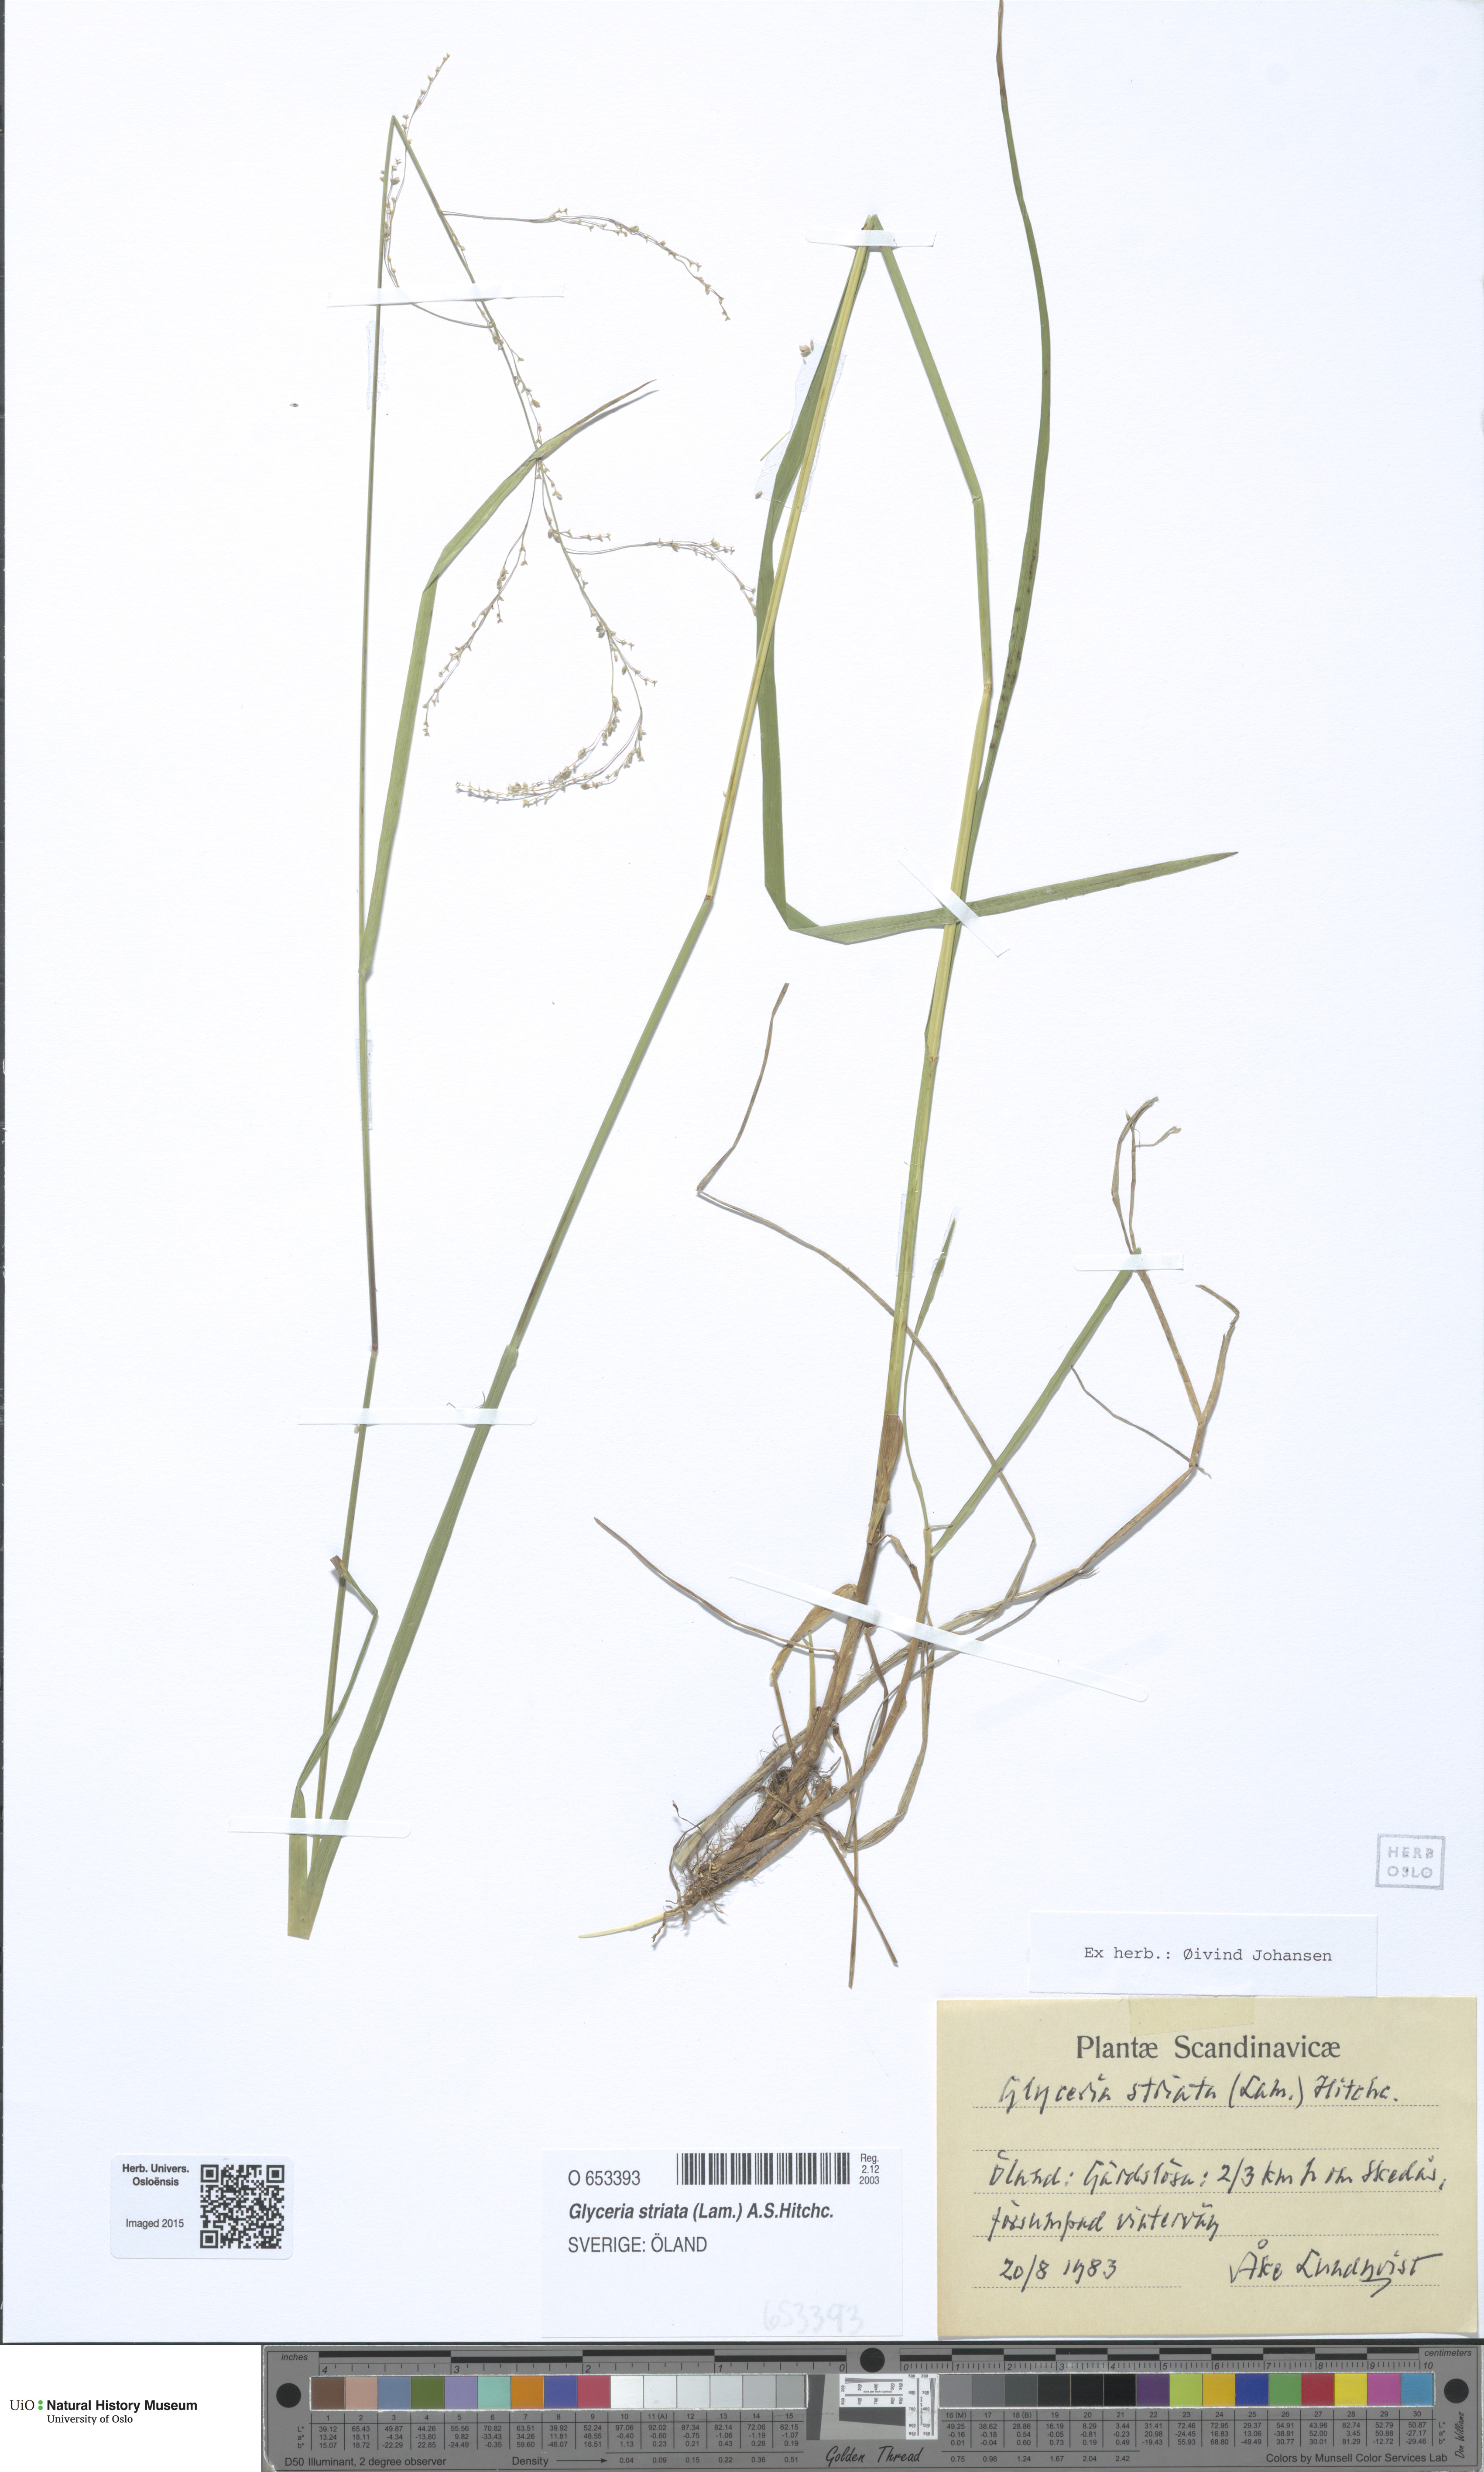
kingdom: Plantae
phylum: Tracheophyta
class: Liliopsida
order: Poales
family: Poaceae
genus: Glyceria
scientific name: Glyceria striata
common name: Fowl manna grass
